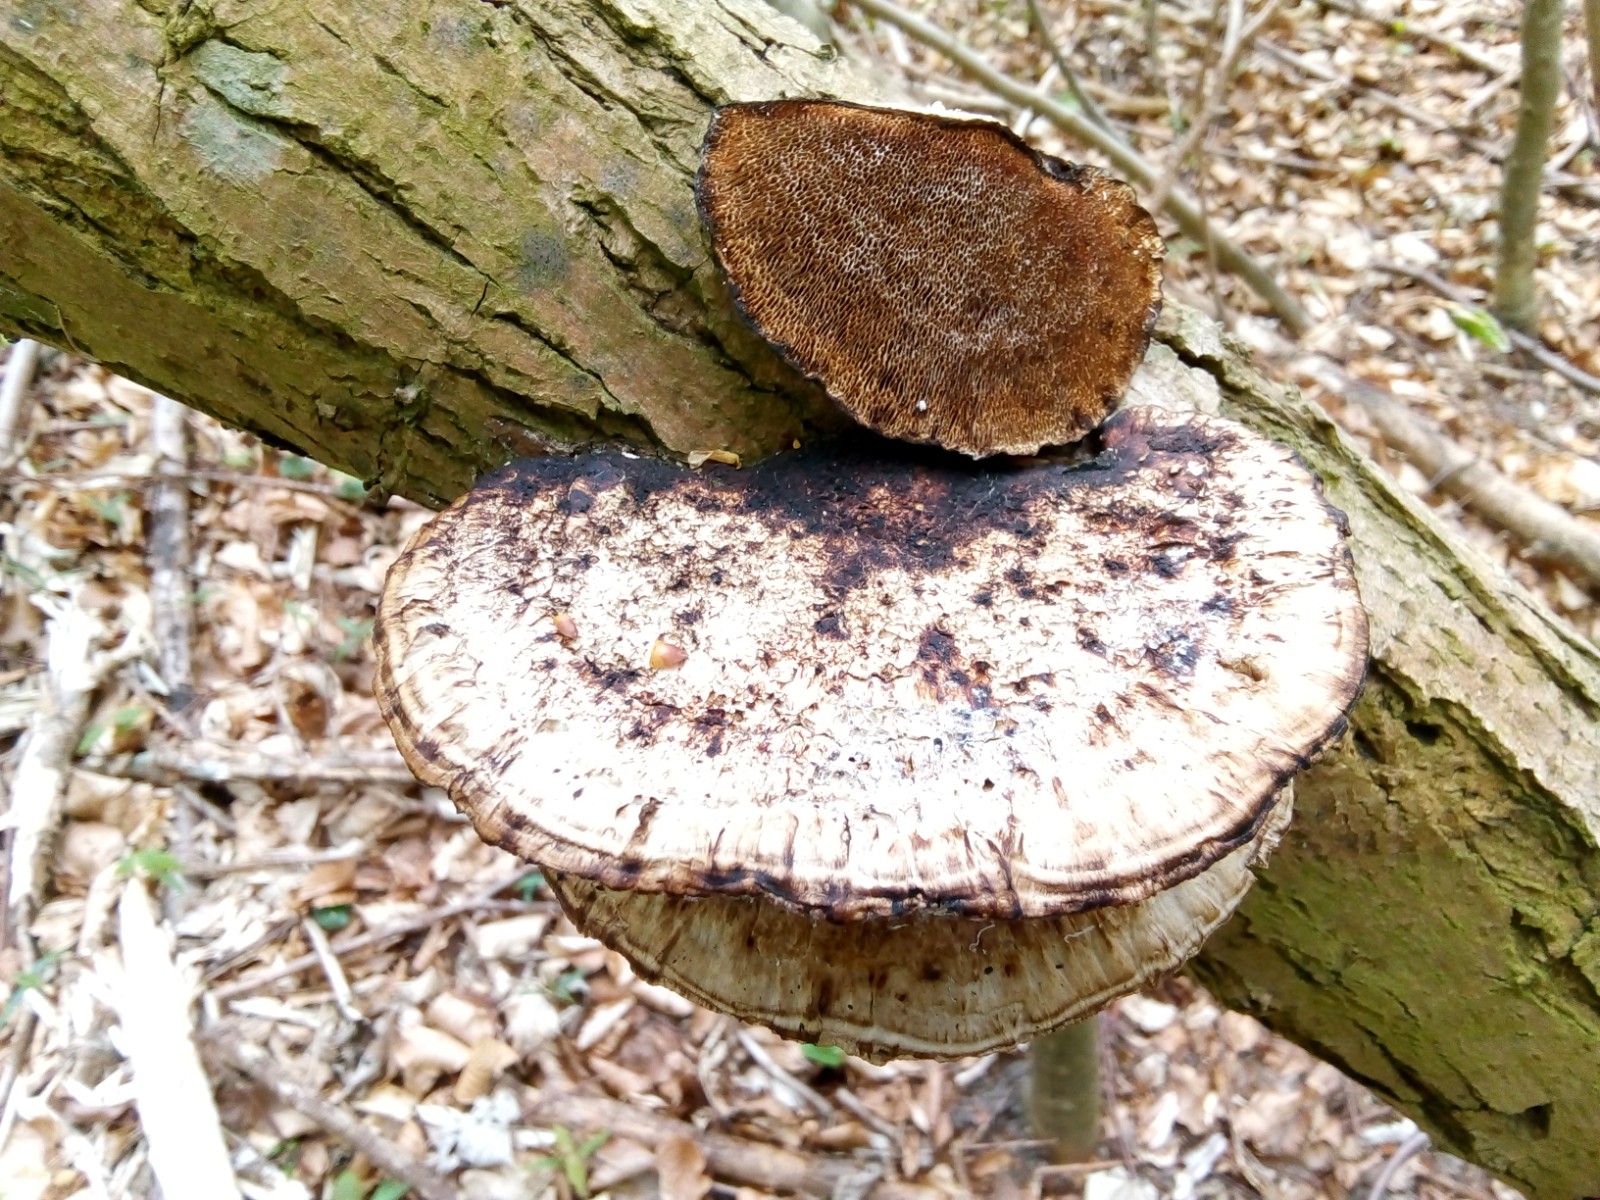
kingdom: Fungi
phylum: Basidiomycota
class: Agaricomycetes
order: Polyporales
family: Polyporaceae
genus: Daedaleopsis
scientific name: Daedaleopsis confragosa
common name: rødmende læderporesvamp
